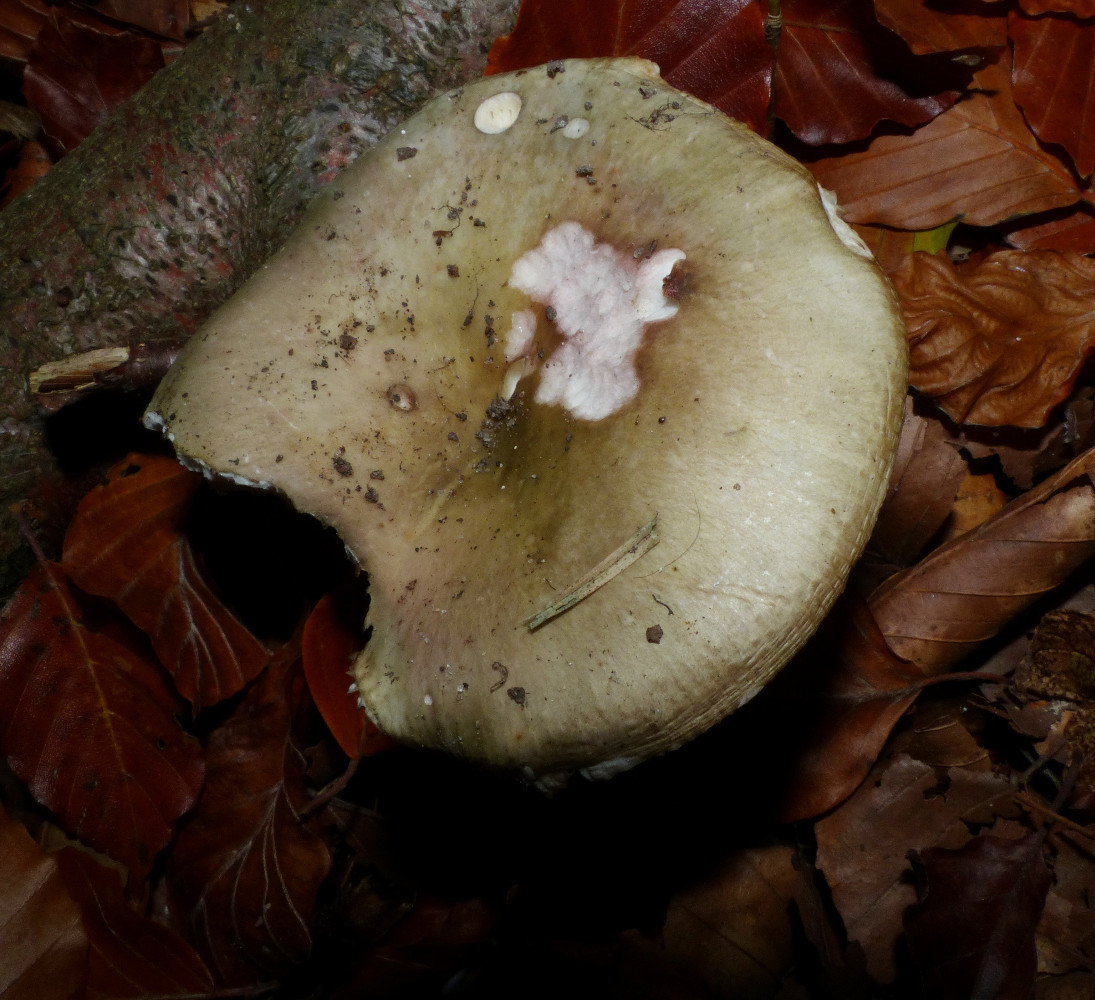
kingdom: Fungi
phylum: Basidiomycota
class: Agaricomycetes
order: Russulales
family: Russulaceae
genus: Russula
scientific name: Russula
